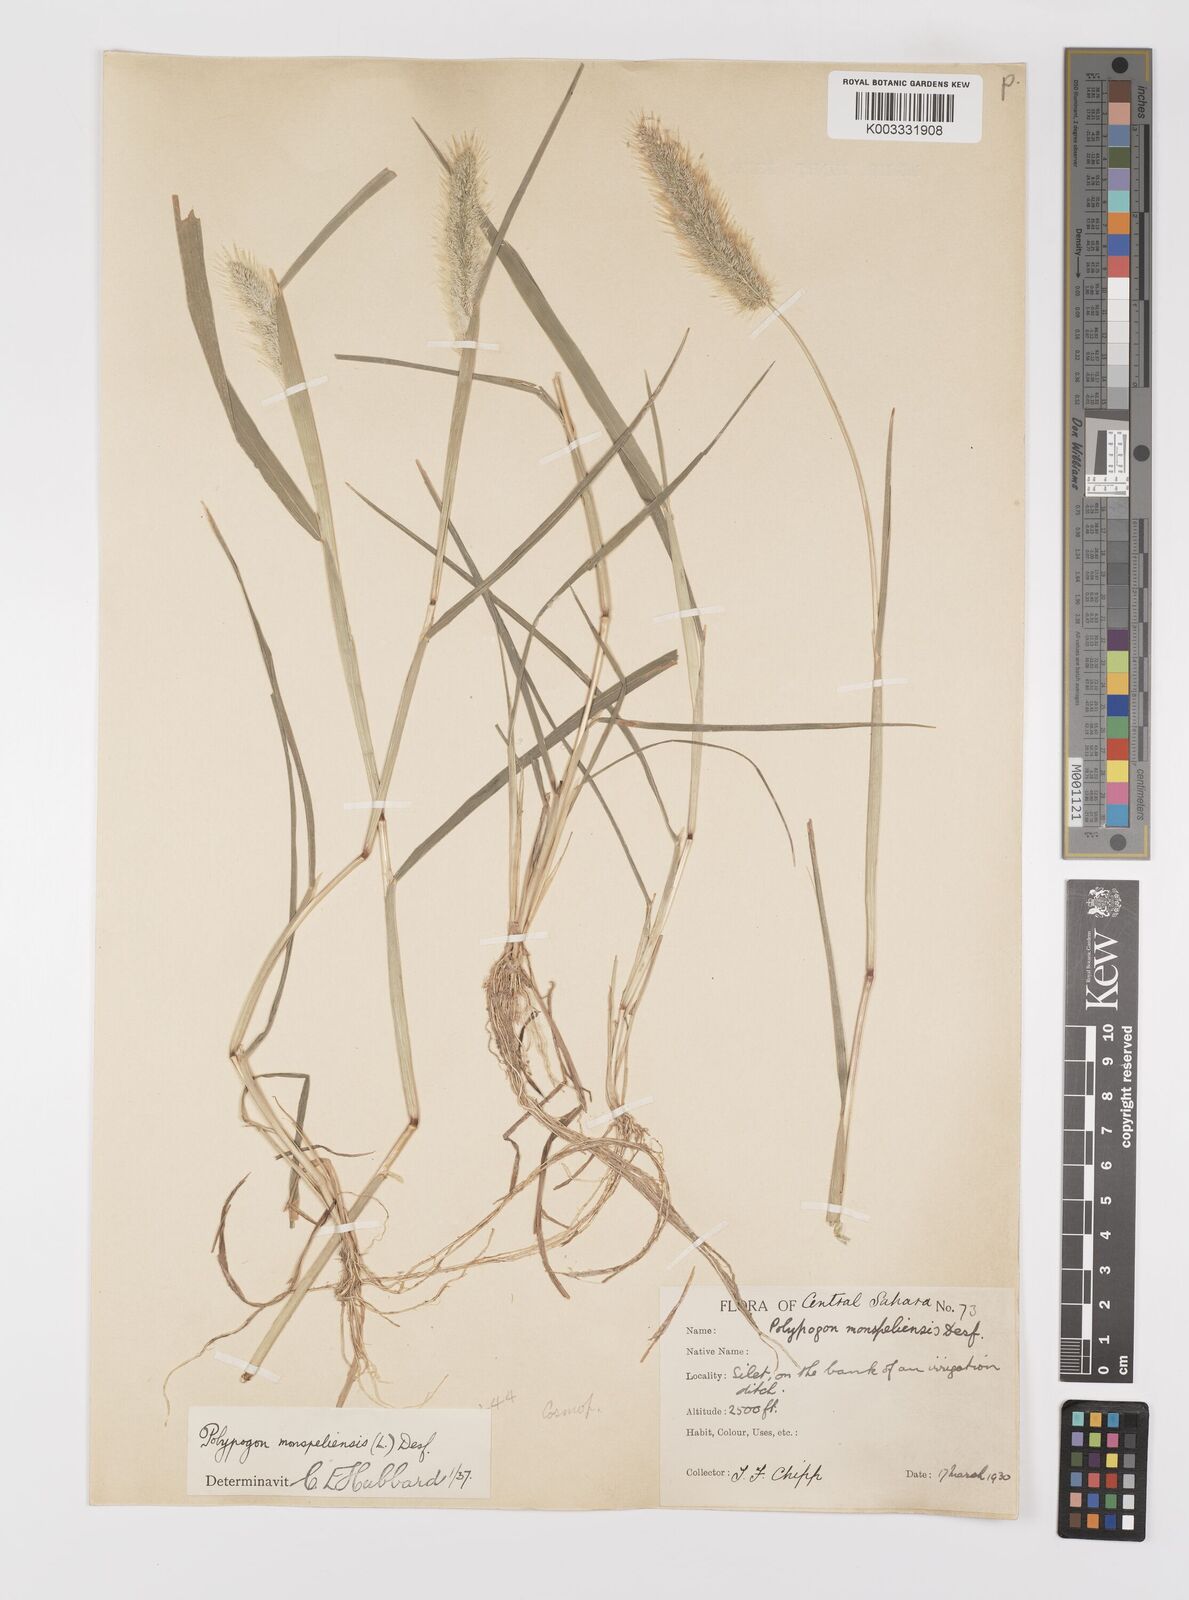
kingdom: Plantae
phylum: Tracheophyta
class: Liliopsida
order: Poales
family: Poaceae
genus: Polypogon
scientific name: Polypogon monspeliensis
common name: Annual rabbitsfoot grass
